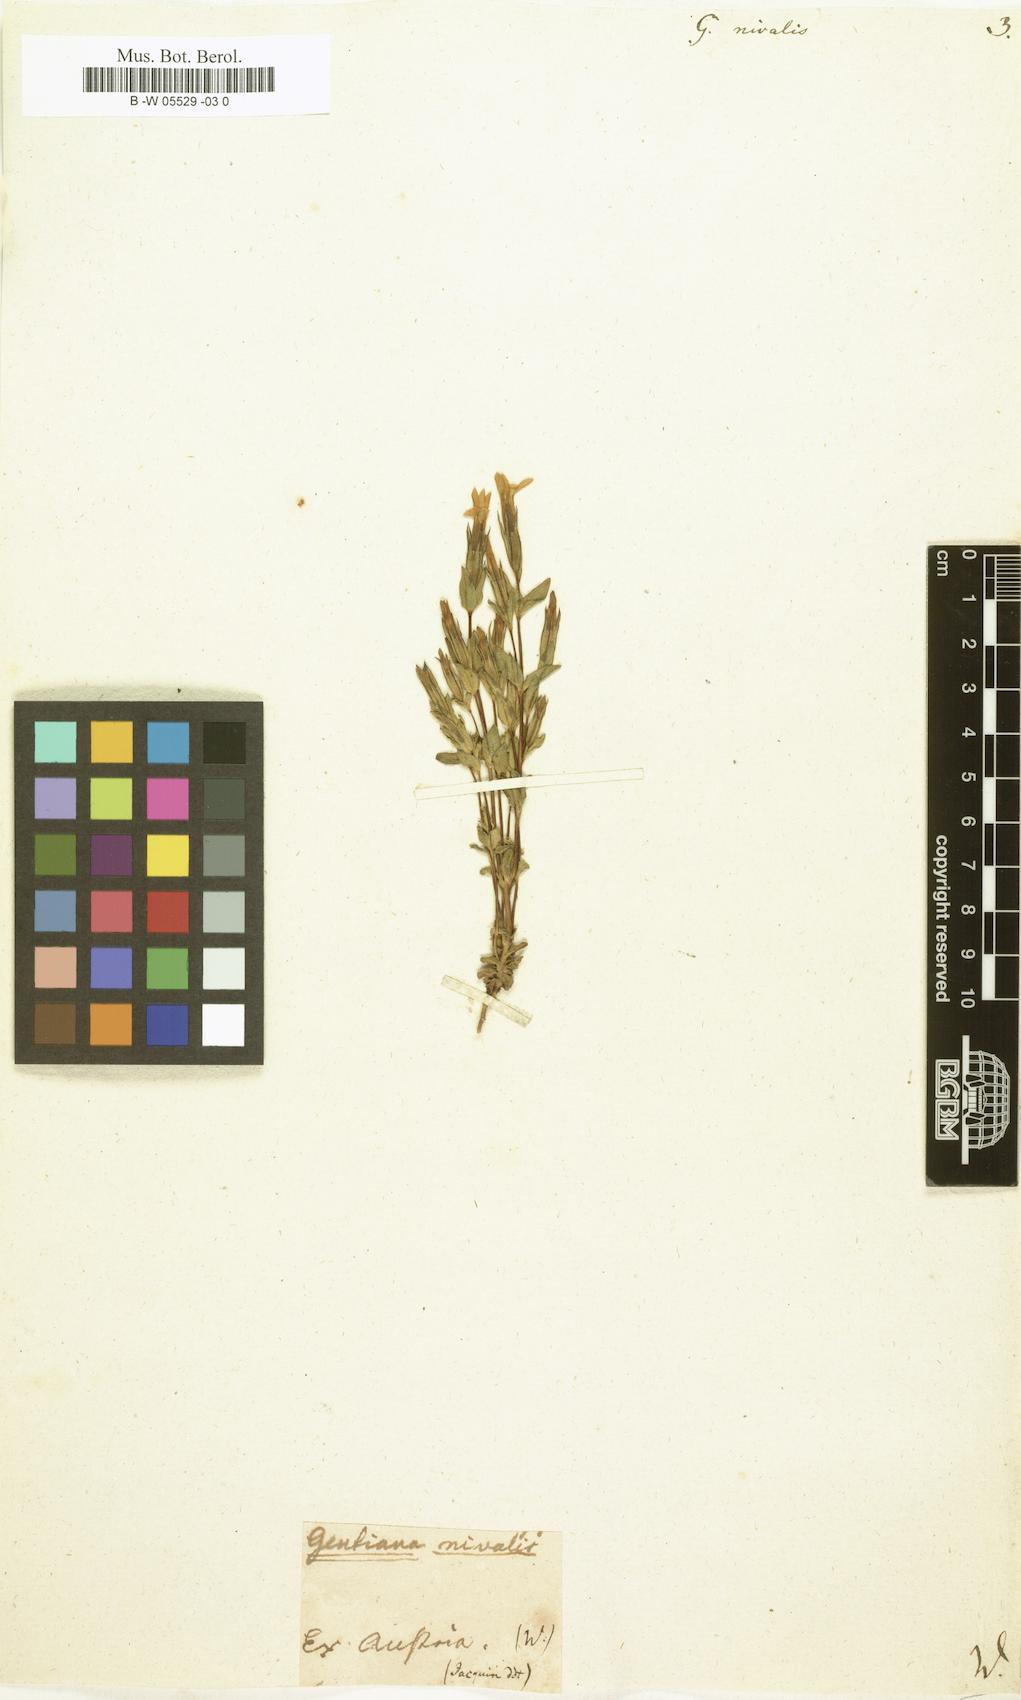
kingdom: Plantae
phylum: Tracheophyta
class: Magnoliopsida
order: Gentianales
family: Gentianaceae
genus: Gentiana
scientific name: Gentiana nivalis
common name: Alpine gentian
